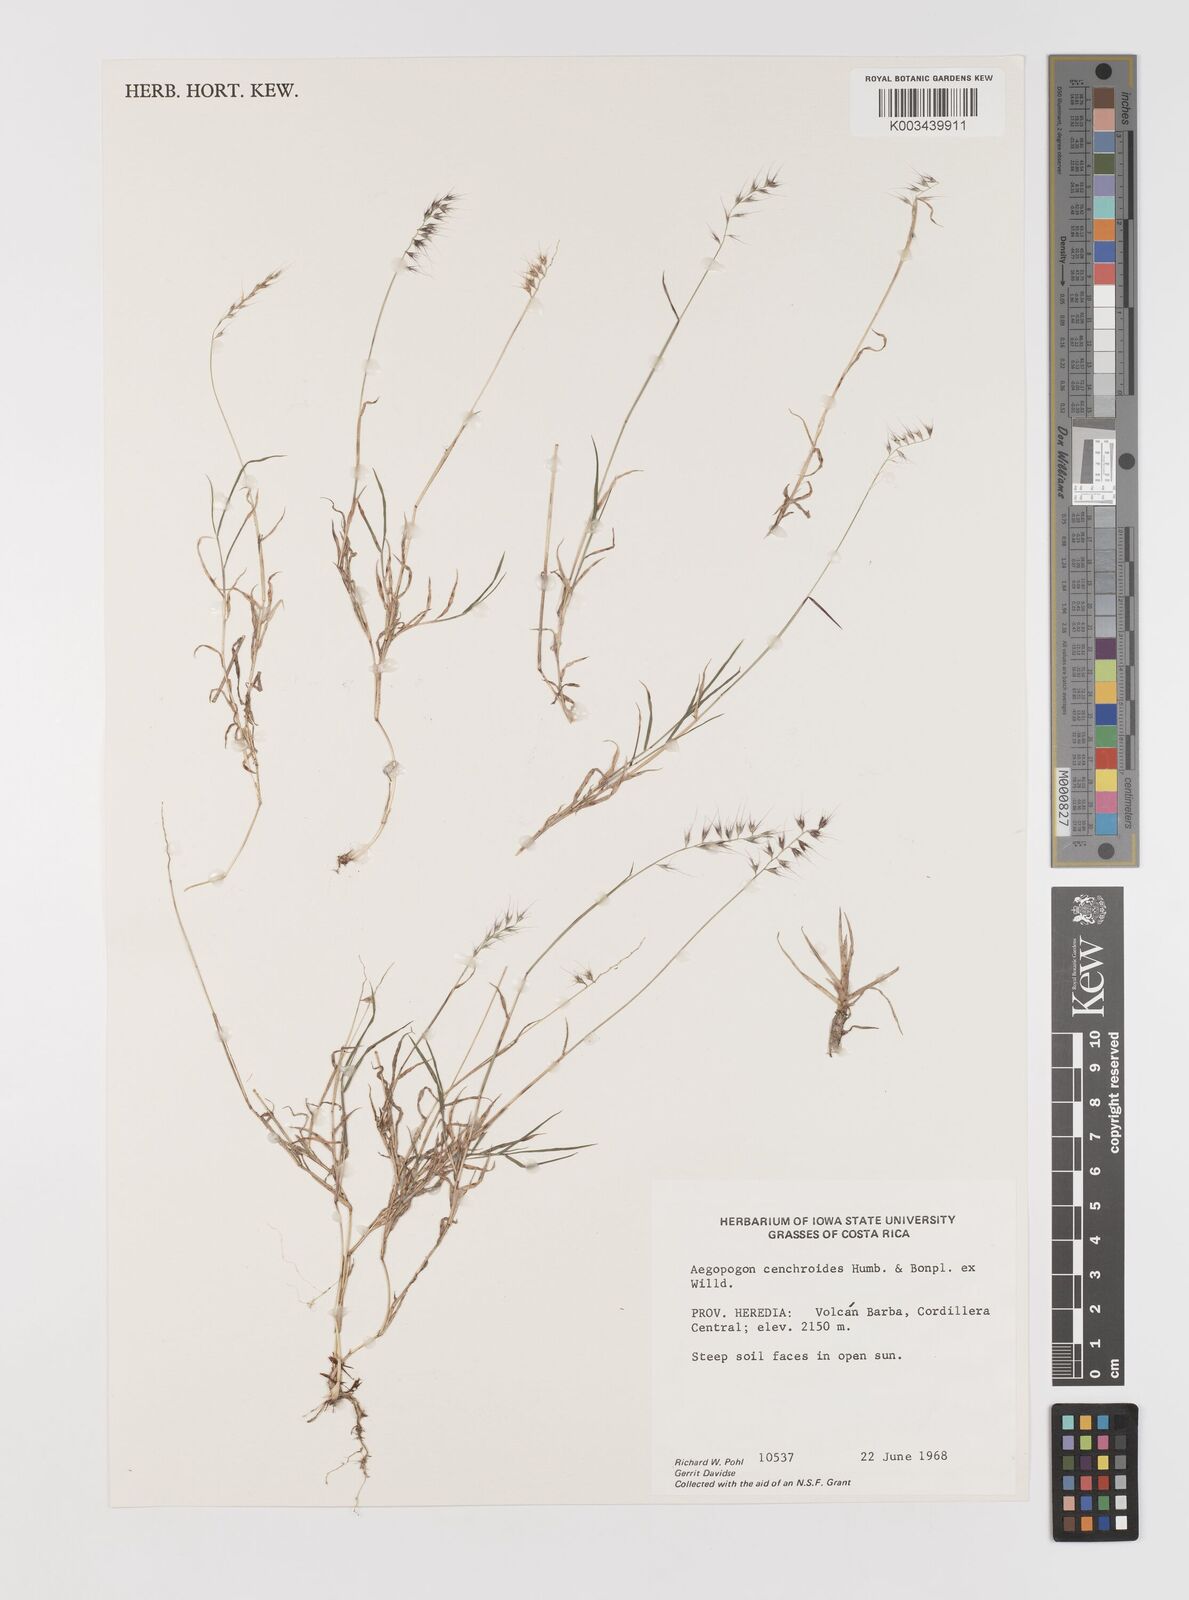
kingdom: Plantae
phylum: Tracheophyta
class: Liliopsida
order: Poales
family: Poaceae
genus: Muhlenbergia
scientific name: Muhlenbergia cenchroides
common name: Relaxgrass
